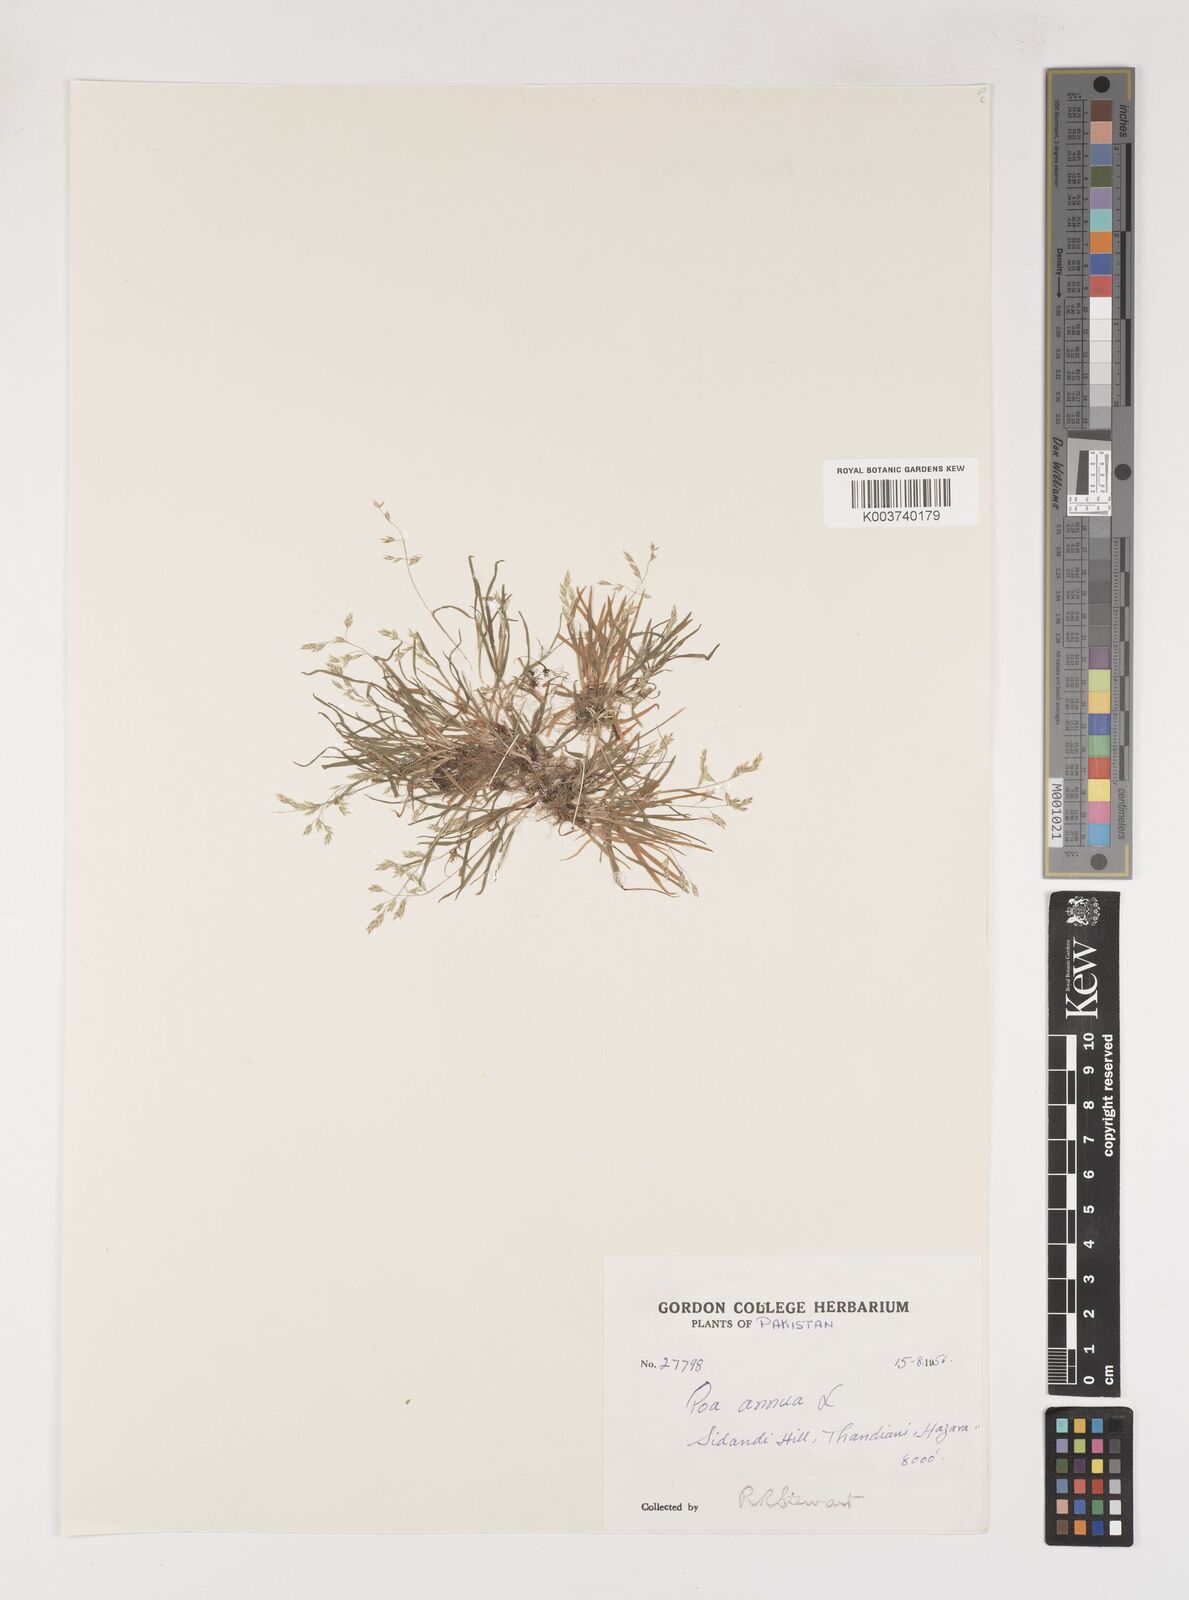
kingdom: Plantae
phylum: Tracheophyta
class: Liliopsida
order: Poales
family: Poaceae
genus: Poa
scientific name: Poa annua
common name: Annual bluegrass
